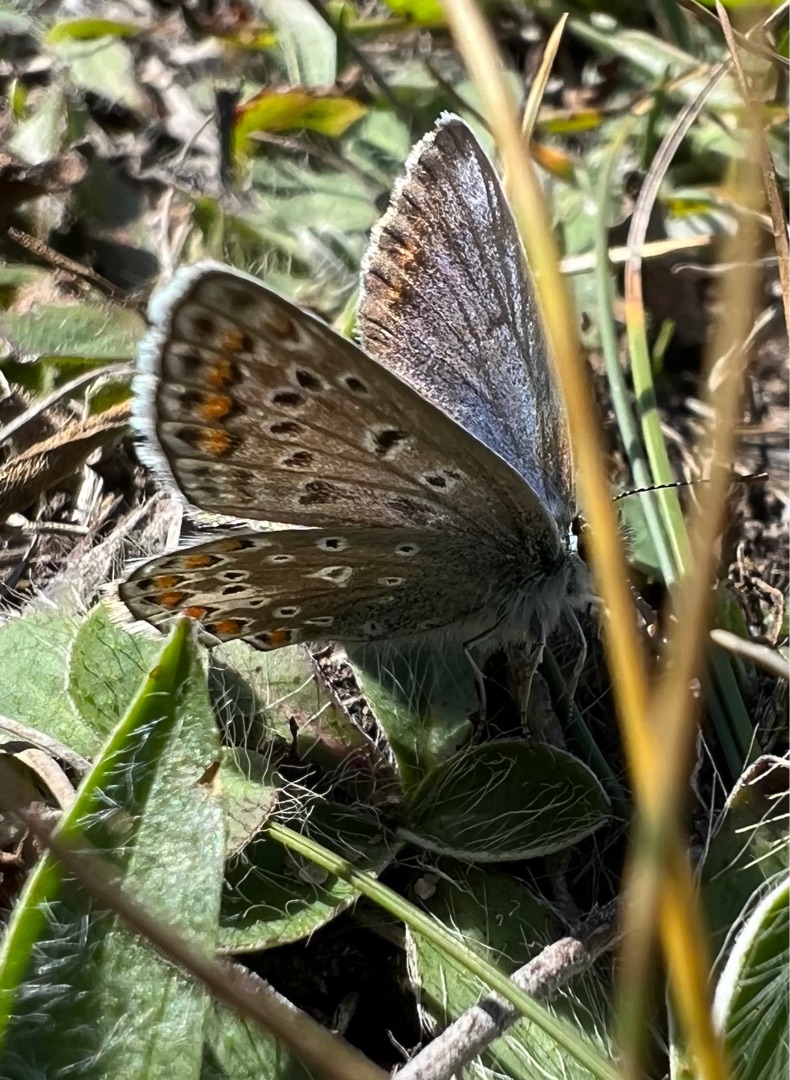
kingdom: Animalia
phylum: Arthropoda
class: Insecta
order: Lepidoptera
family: Lycaenidae
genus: Polyommatus
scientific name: Polyommatus icarus
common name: Almindelig blåfugl
